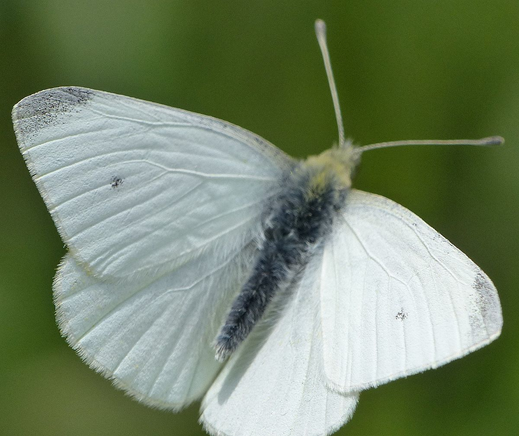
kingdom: Animalia
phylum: Arthropoda
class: Insecta
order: Lepidoptera
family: Pieridae
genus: Pieris
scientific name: Pieris rapae
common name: Cabbage White
